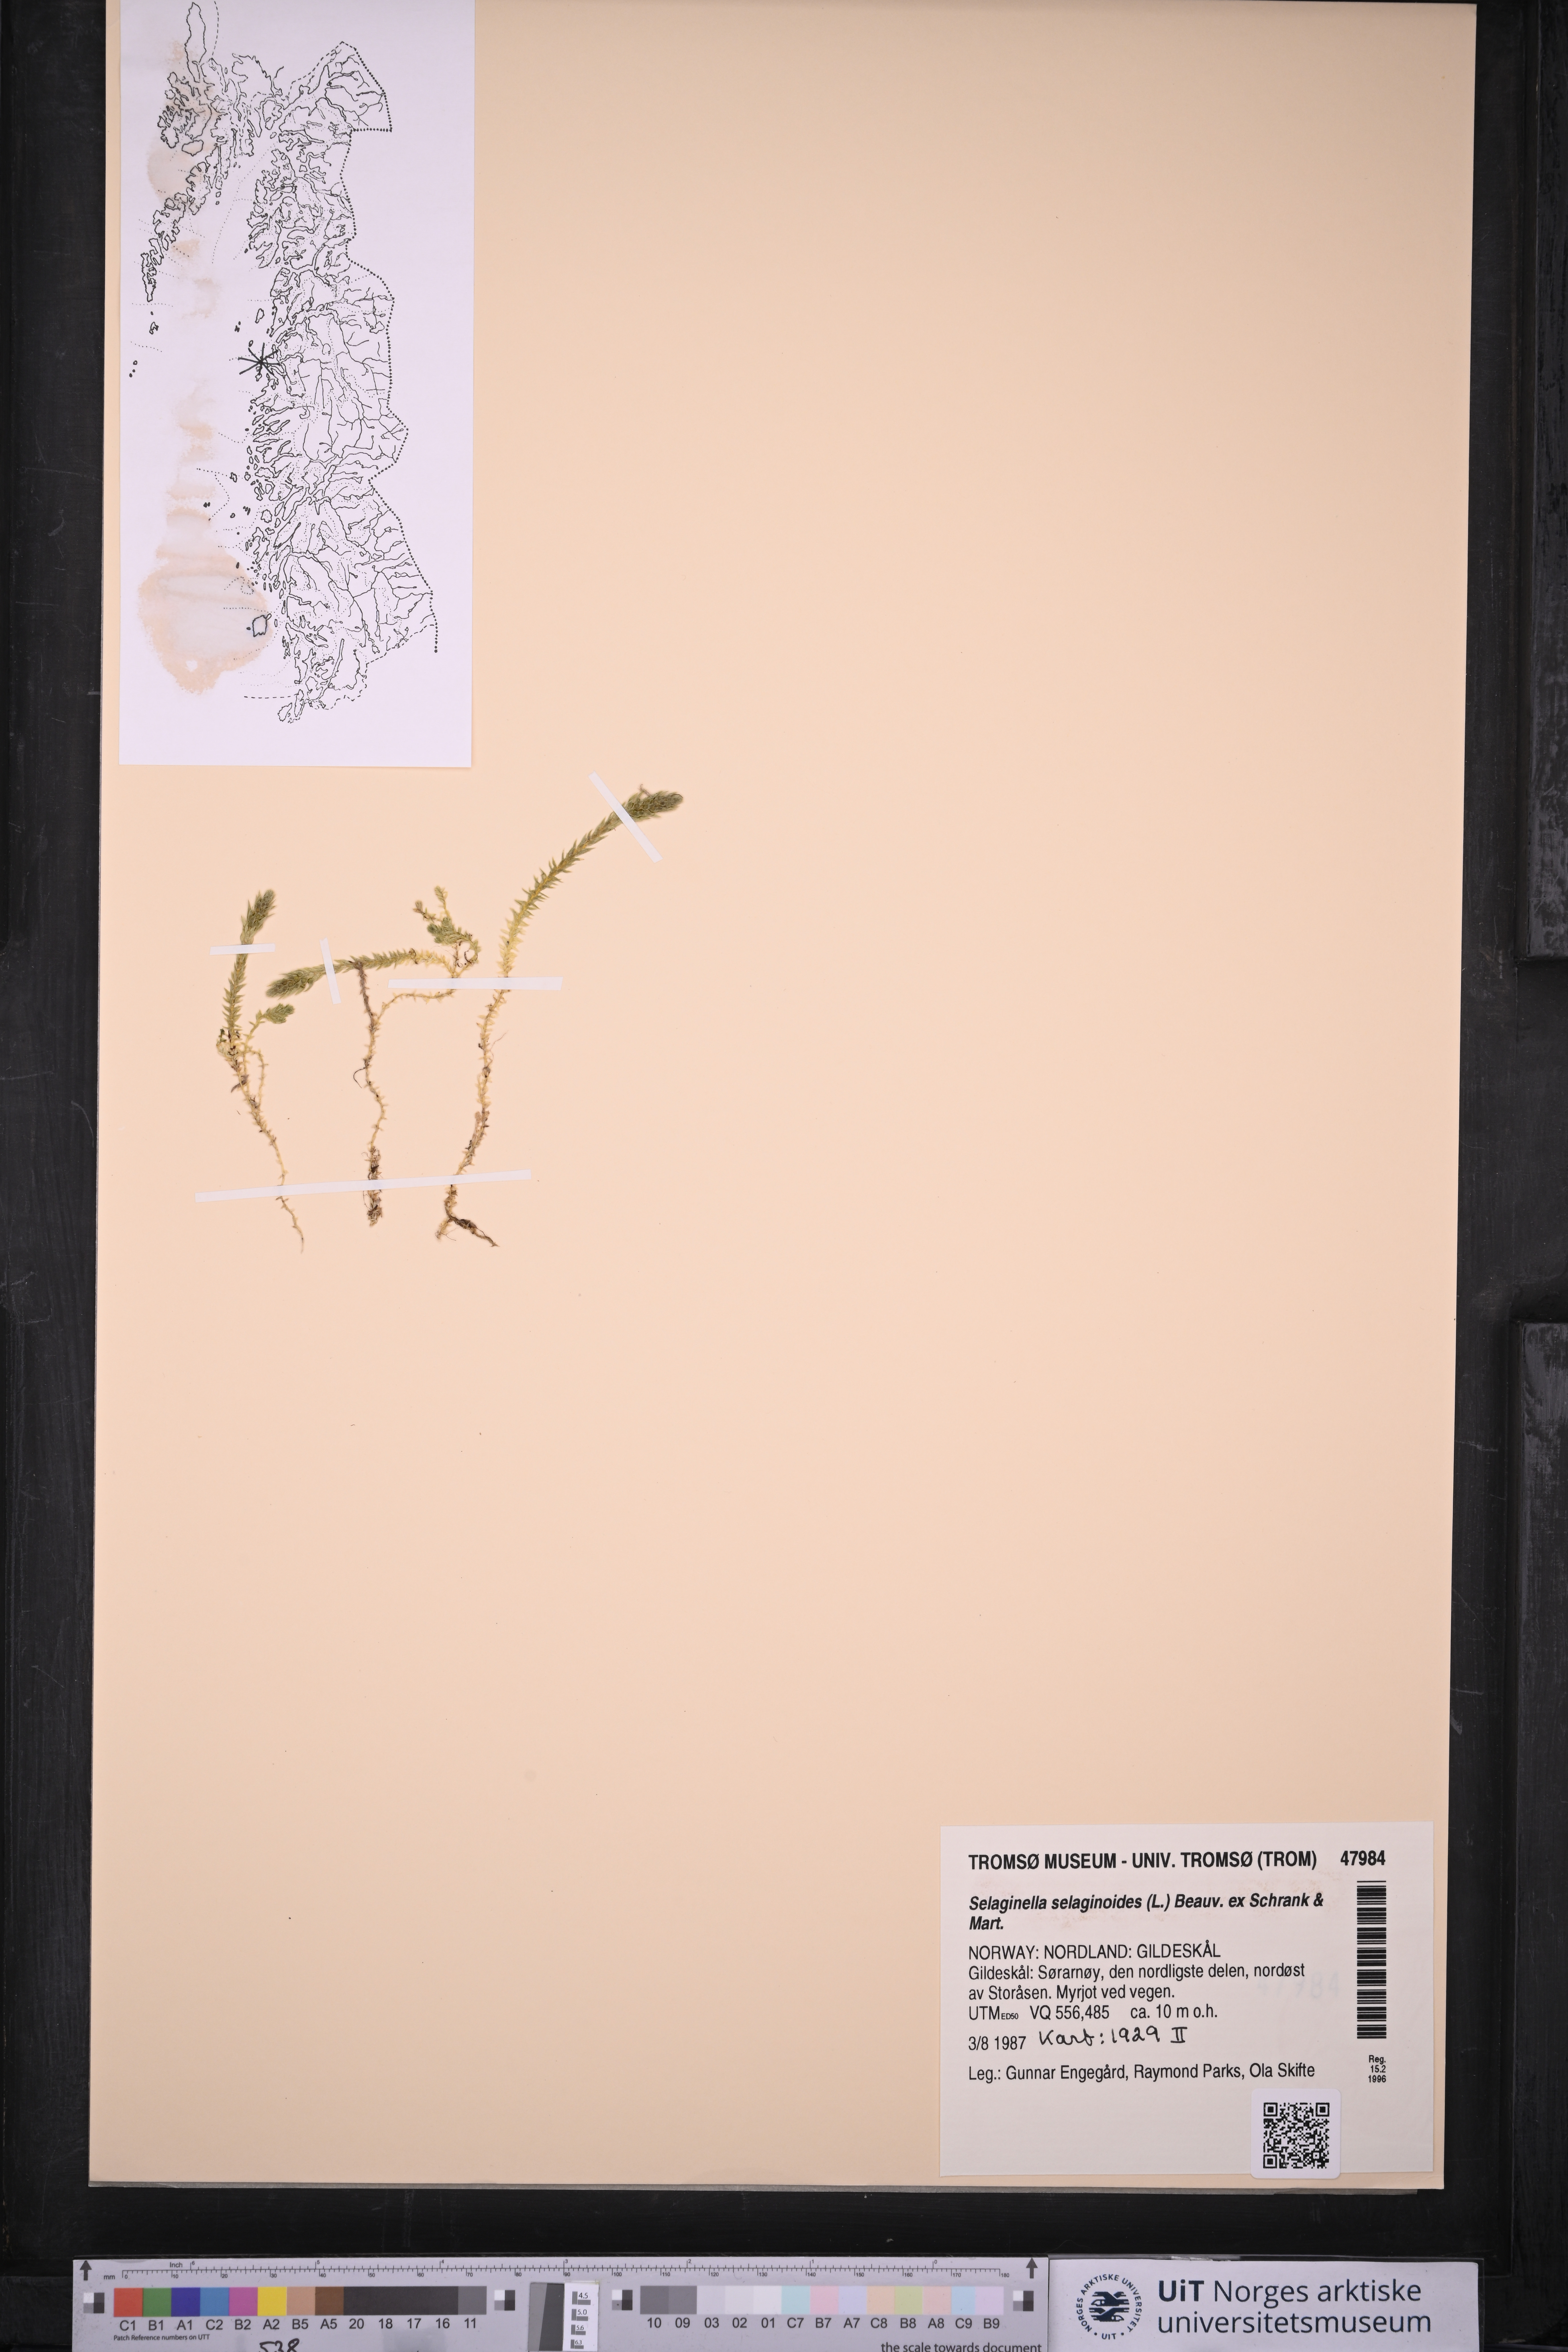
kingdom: Plantae
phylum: Tracheophyta
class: Lycopodiopsida
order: Selaginellales
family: Selaginellaceae
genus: Selaginella
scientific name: Selaginella selaginoides
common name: Prickly mountain-moss
